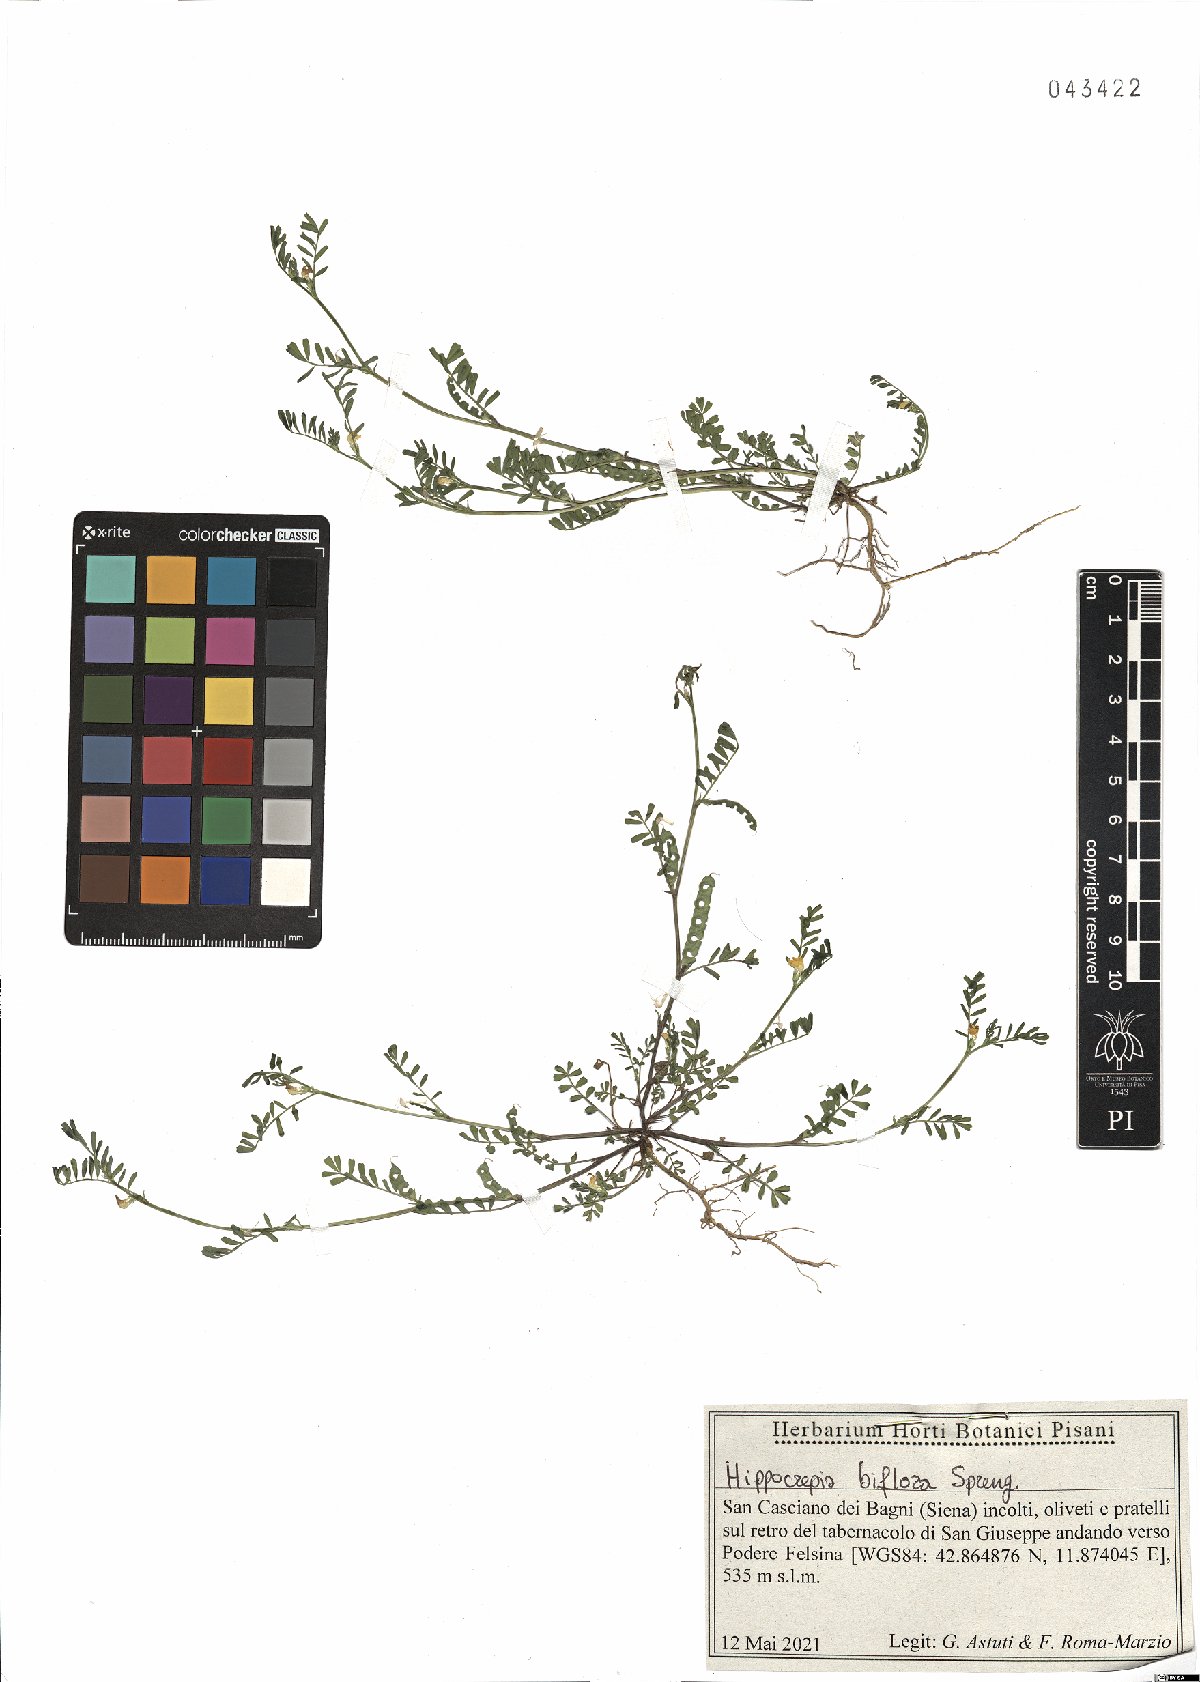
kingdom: Plantae
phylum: Tracheophyta
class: Magnoliopsida
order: Fabales
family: Fabaceae
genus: Hippocrepis
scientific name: Hippocrepis biflora
